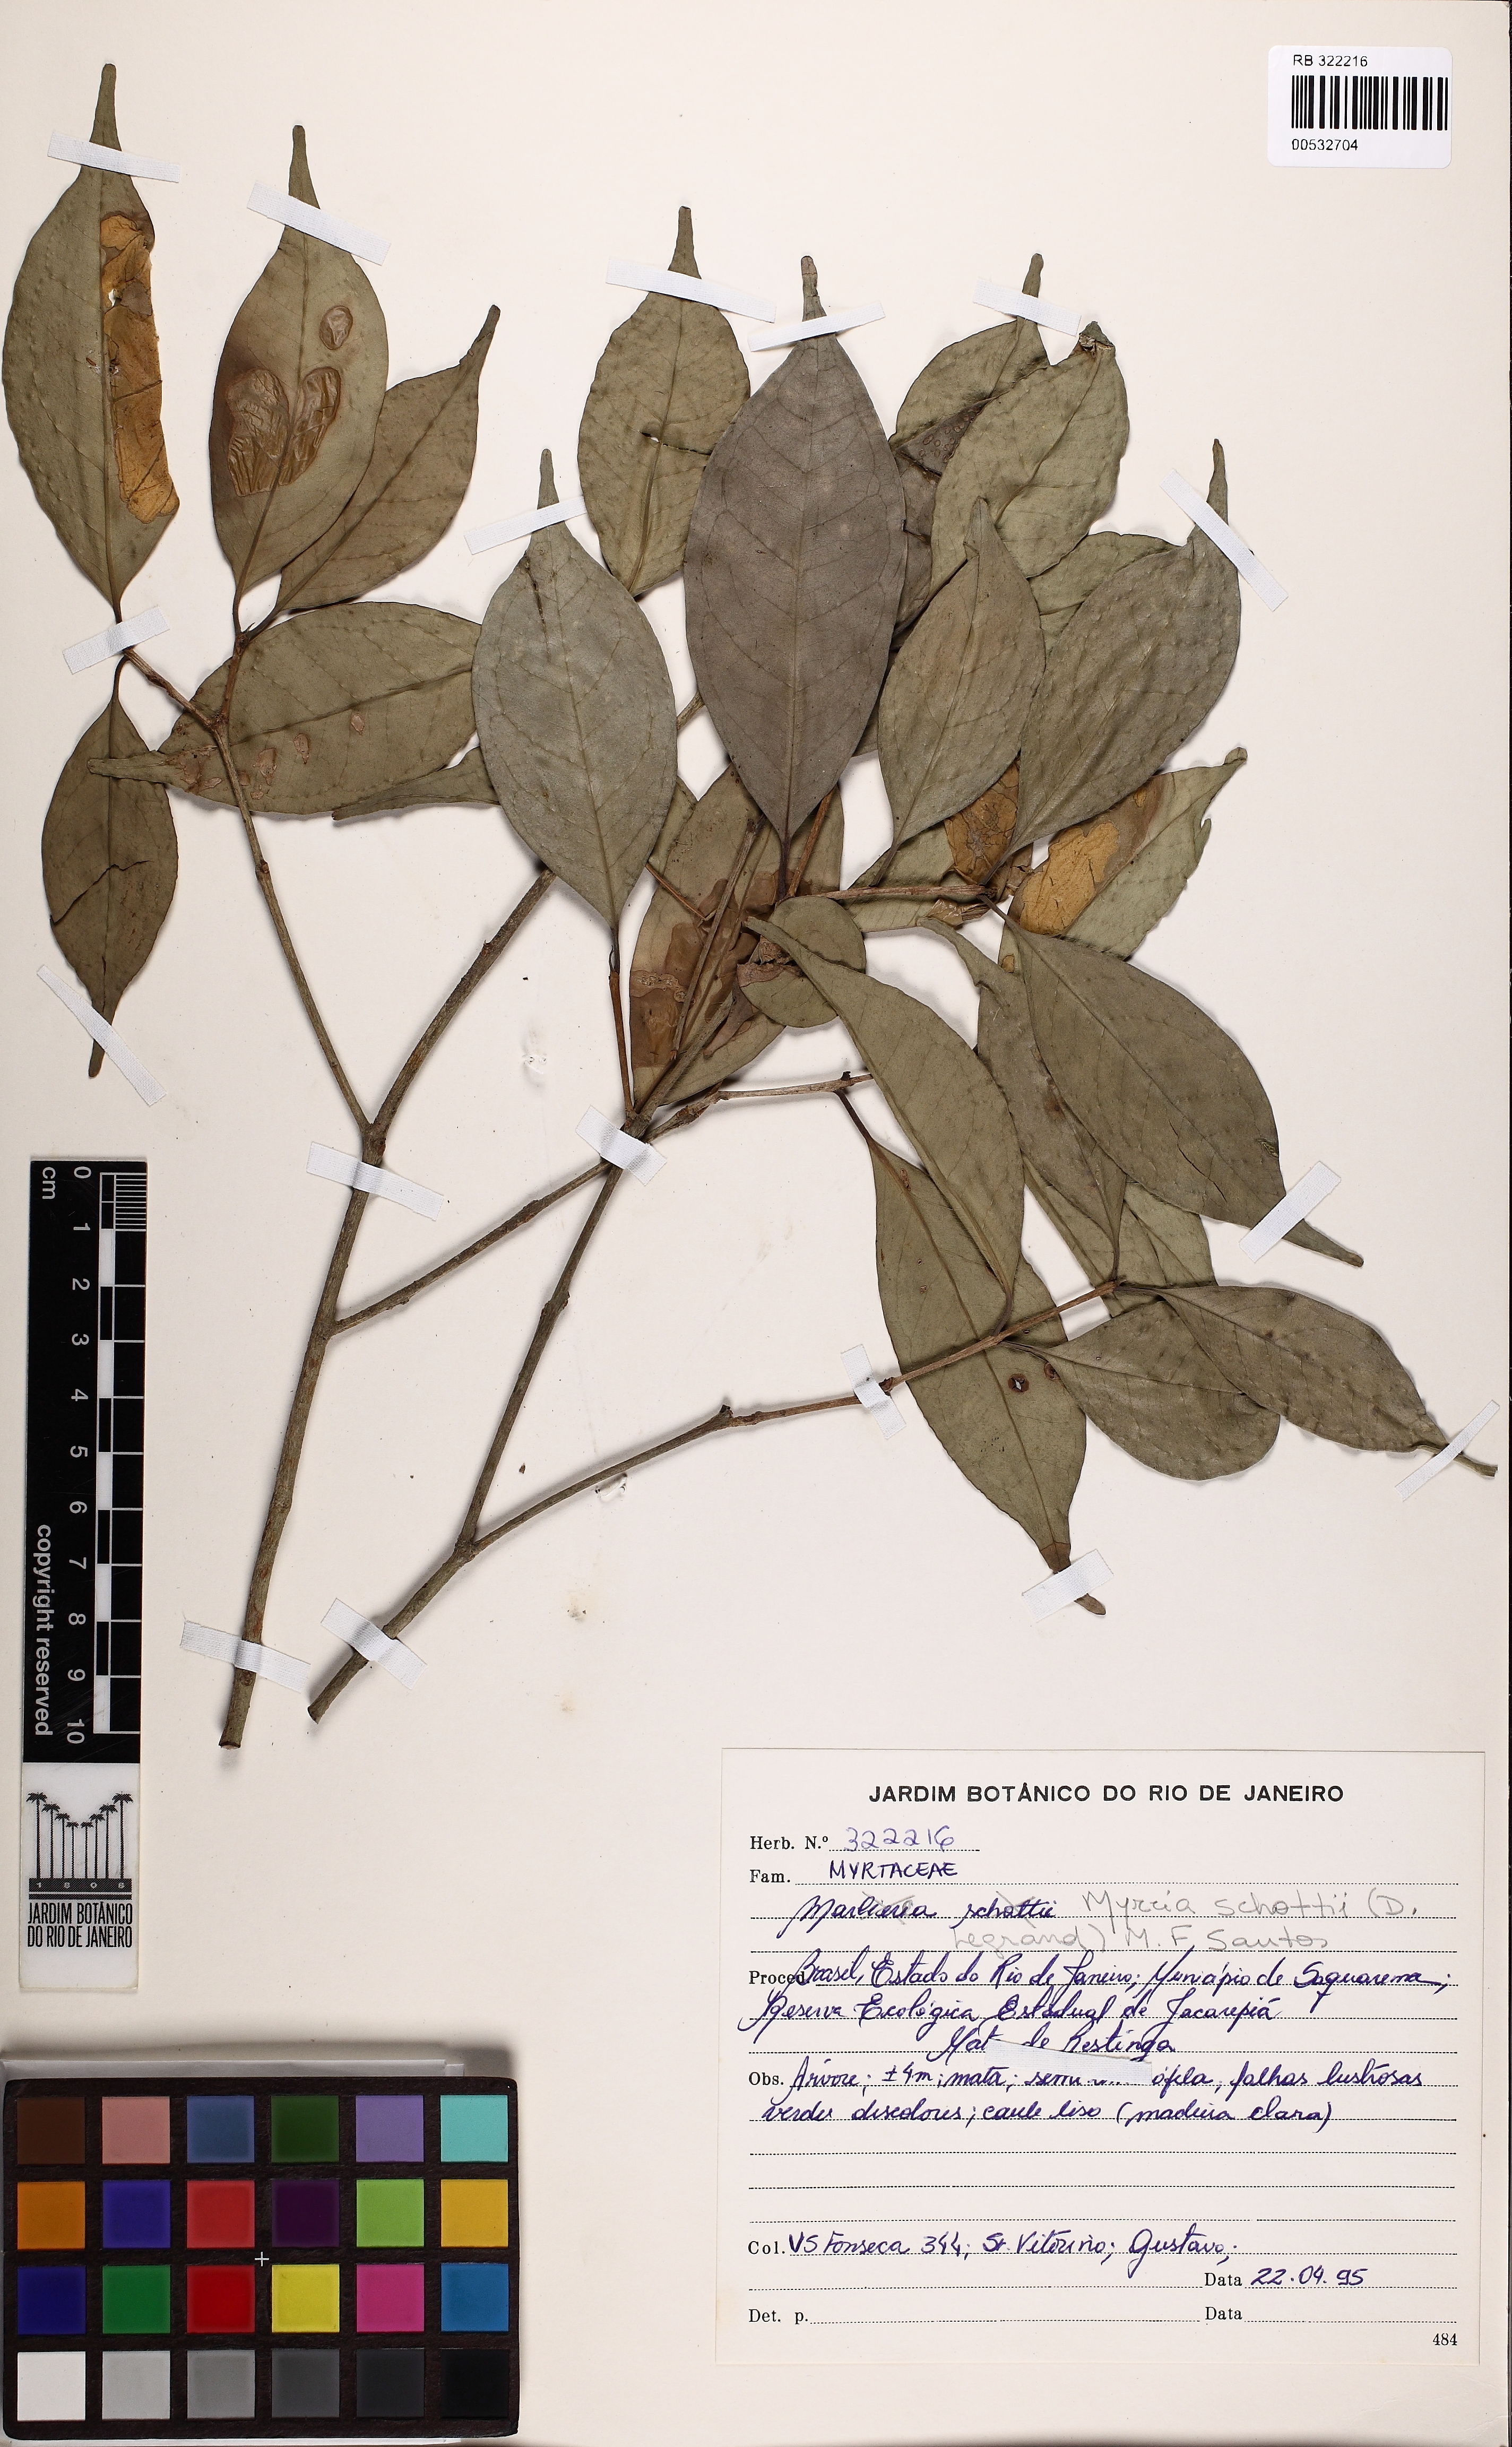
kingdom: Plantae
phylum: Tracheophyta
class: Magnoliopsida
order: Myrtales
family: Myrtaceae
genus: Myrcia
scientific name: Myrcia schottii
